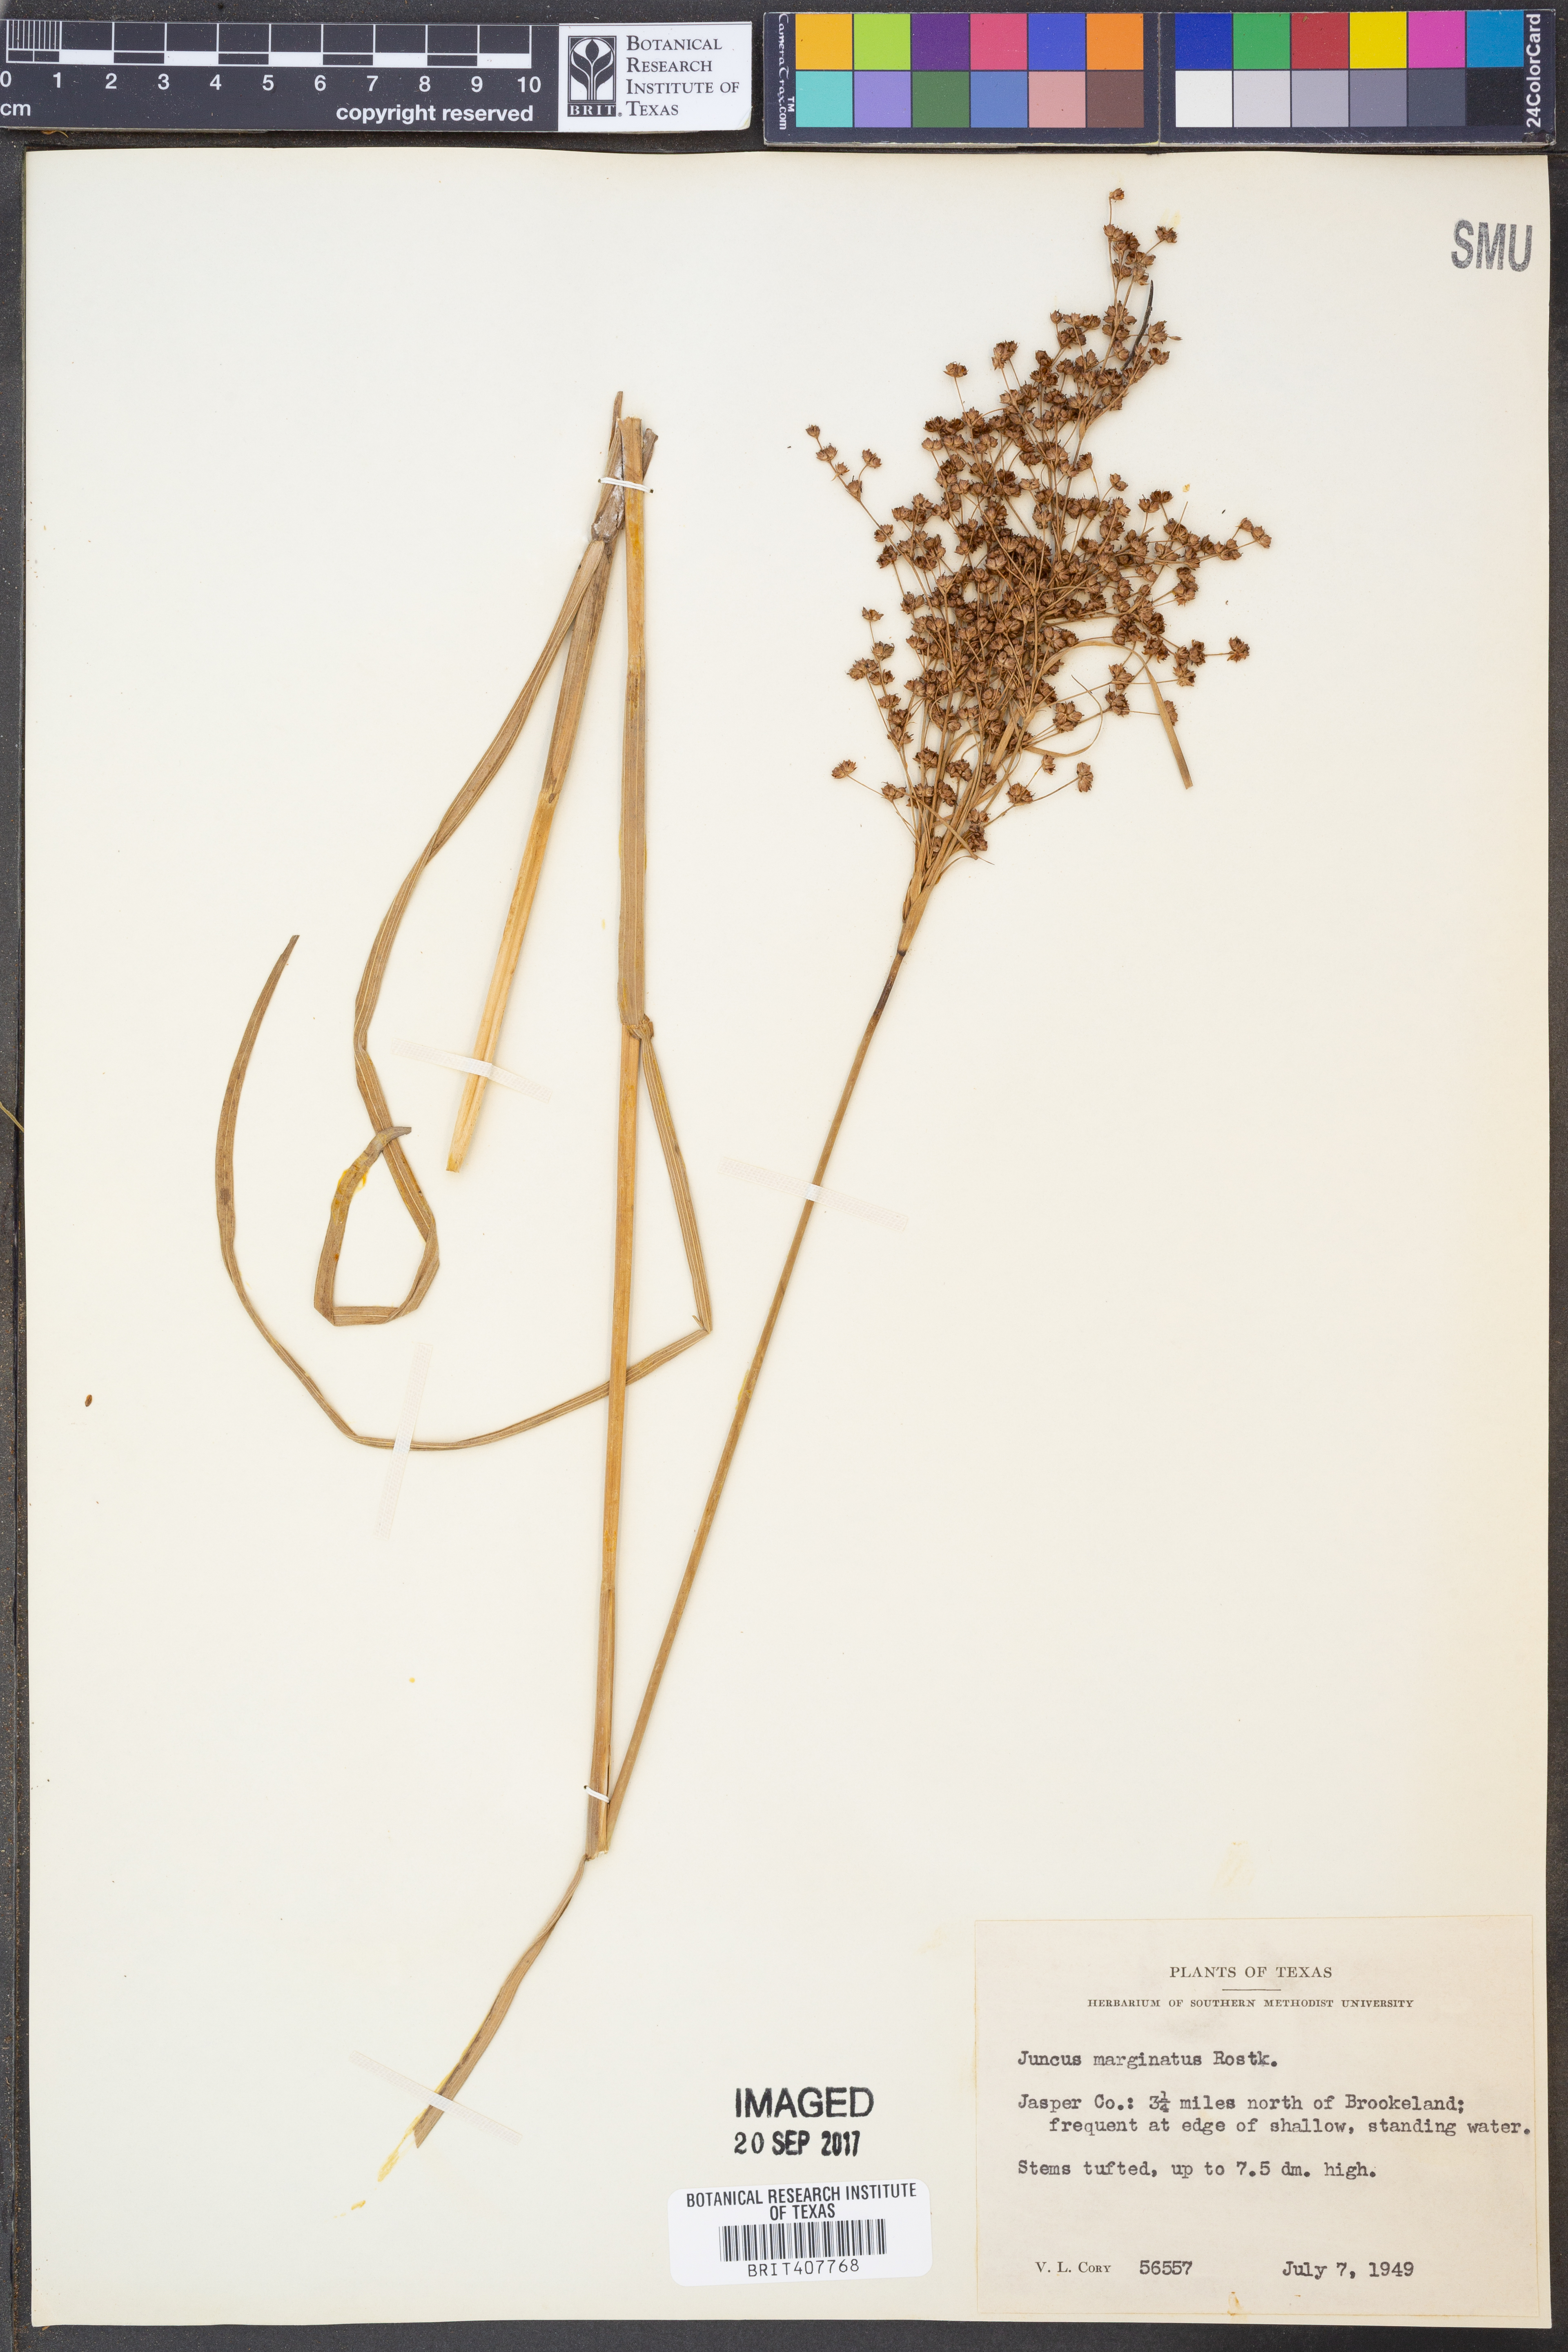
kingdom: Plantae
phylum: Tracheophyta
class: Liliopsida
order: Poales
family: Juncaceae
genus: Juncus
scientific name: Juncus marginatus
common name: Grass-leaf rush
